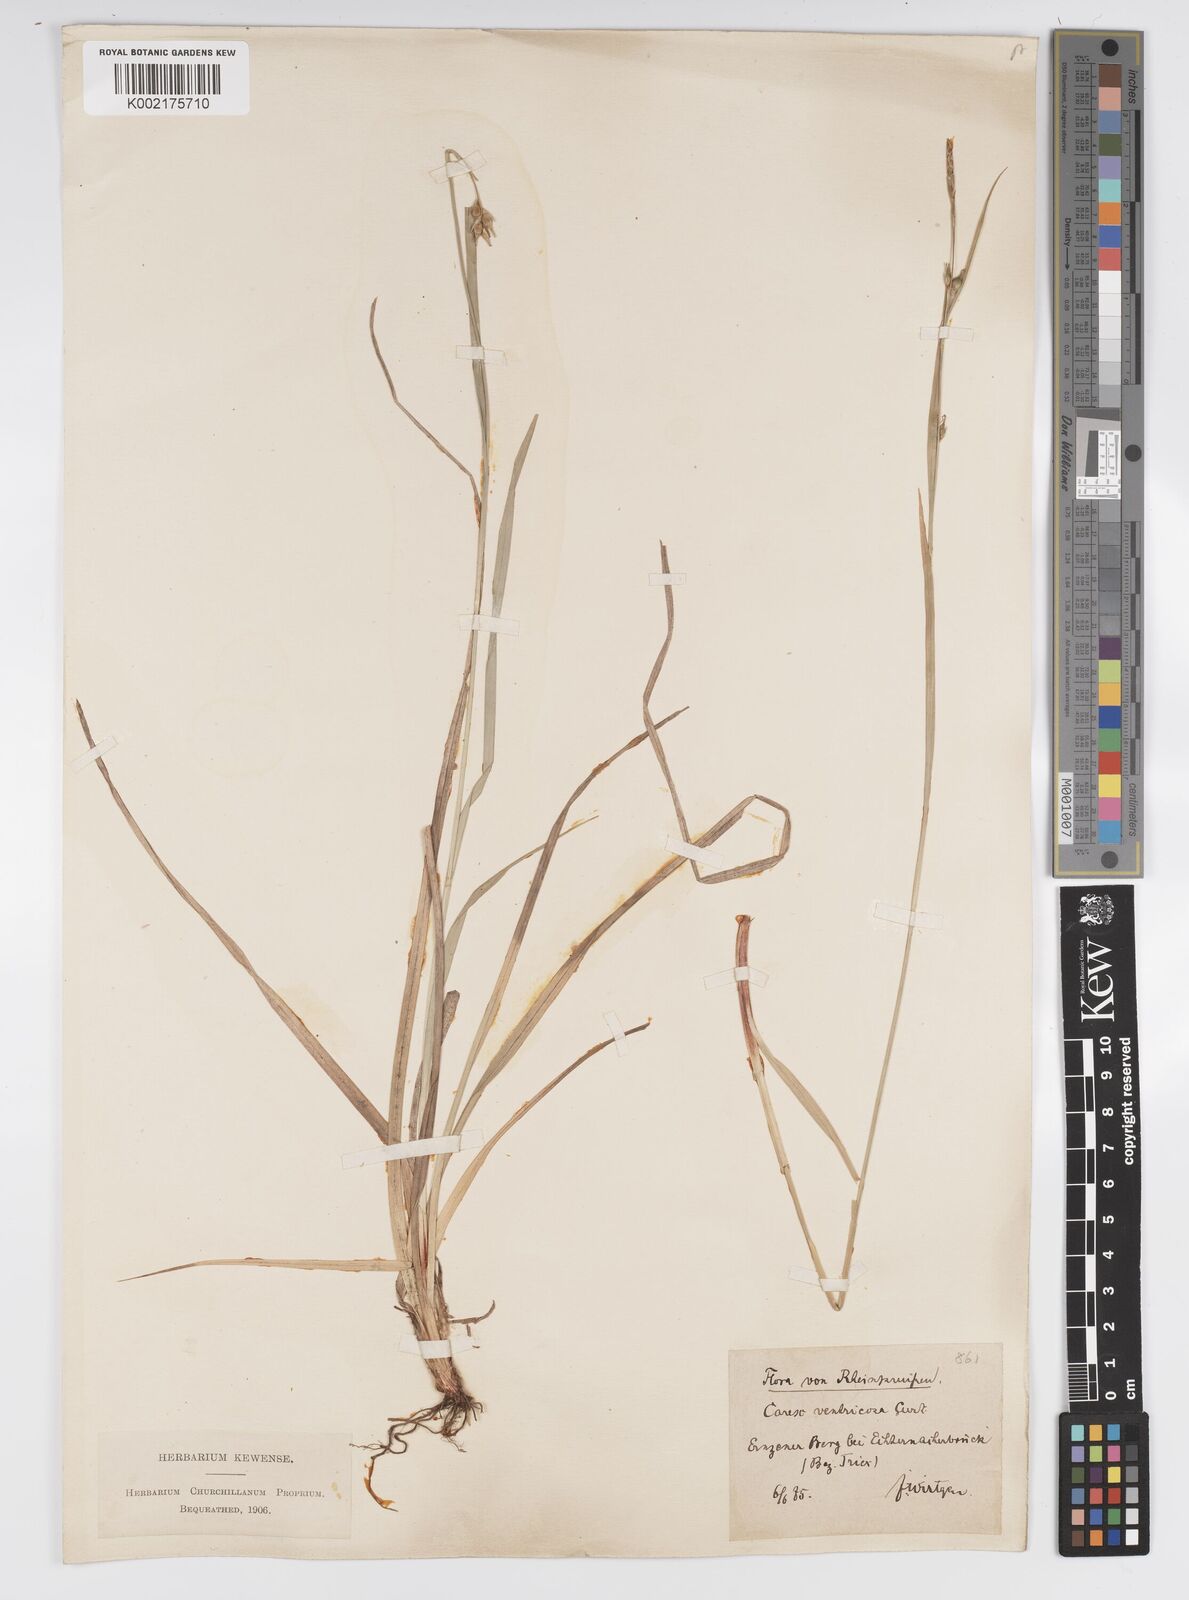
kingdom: Plantae
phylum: Tracheophyta
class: Liliopsida
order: Poales
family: Cyperaceae
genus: Carex
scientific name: Carex
